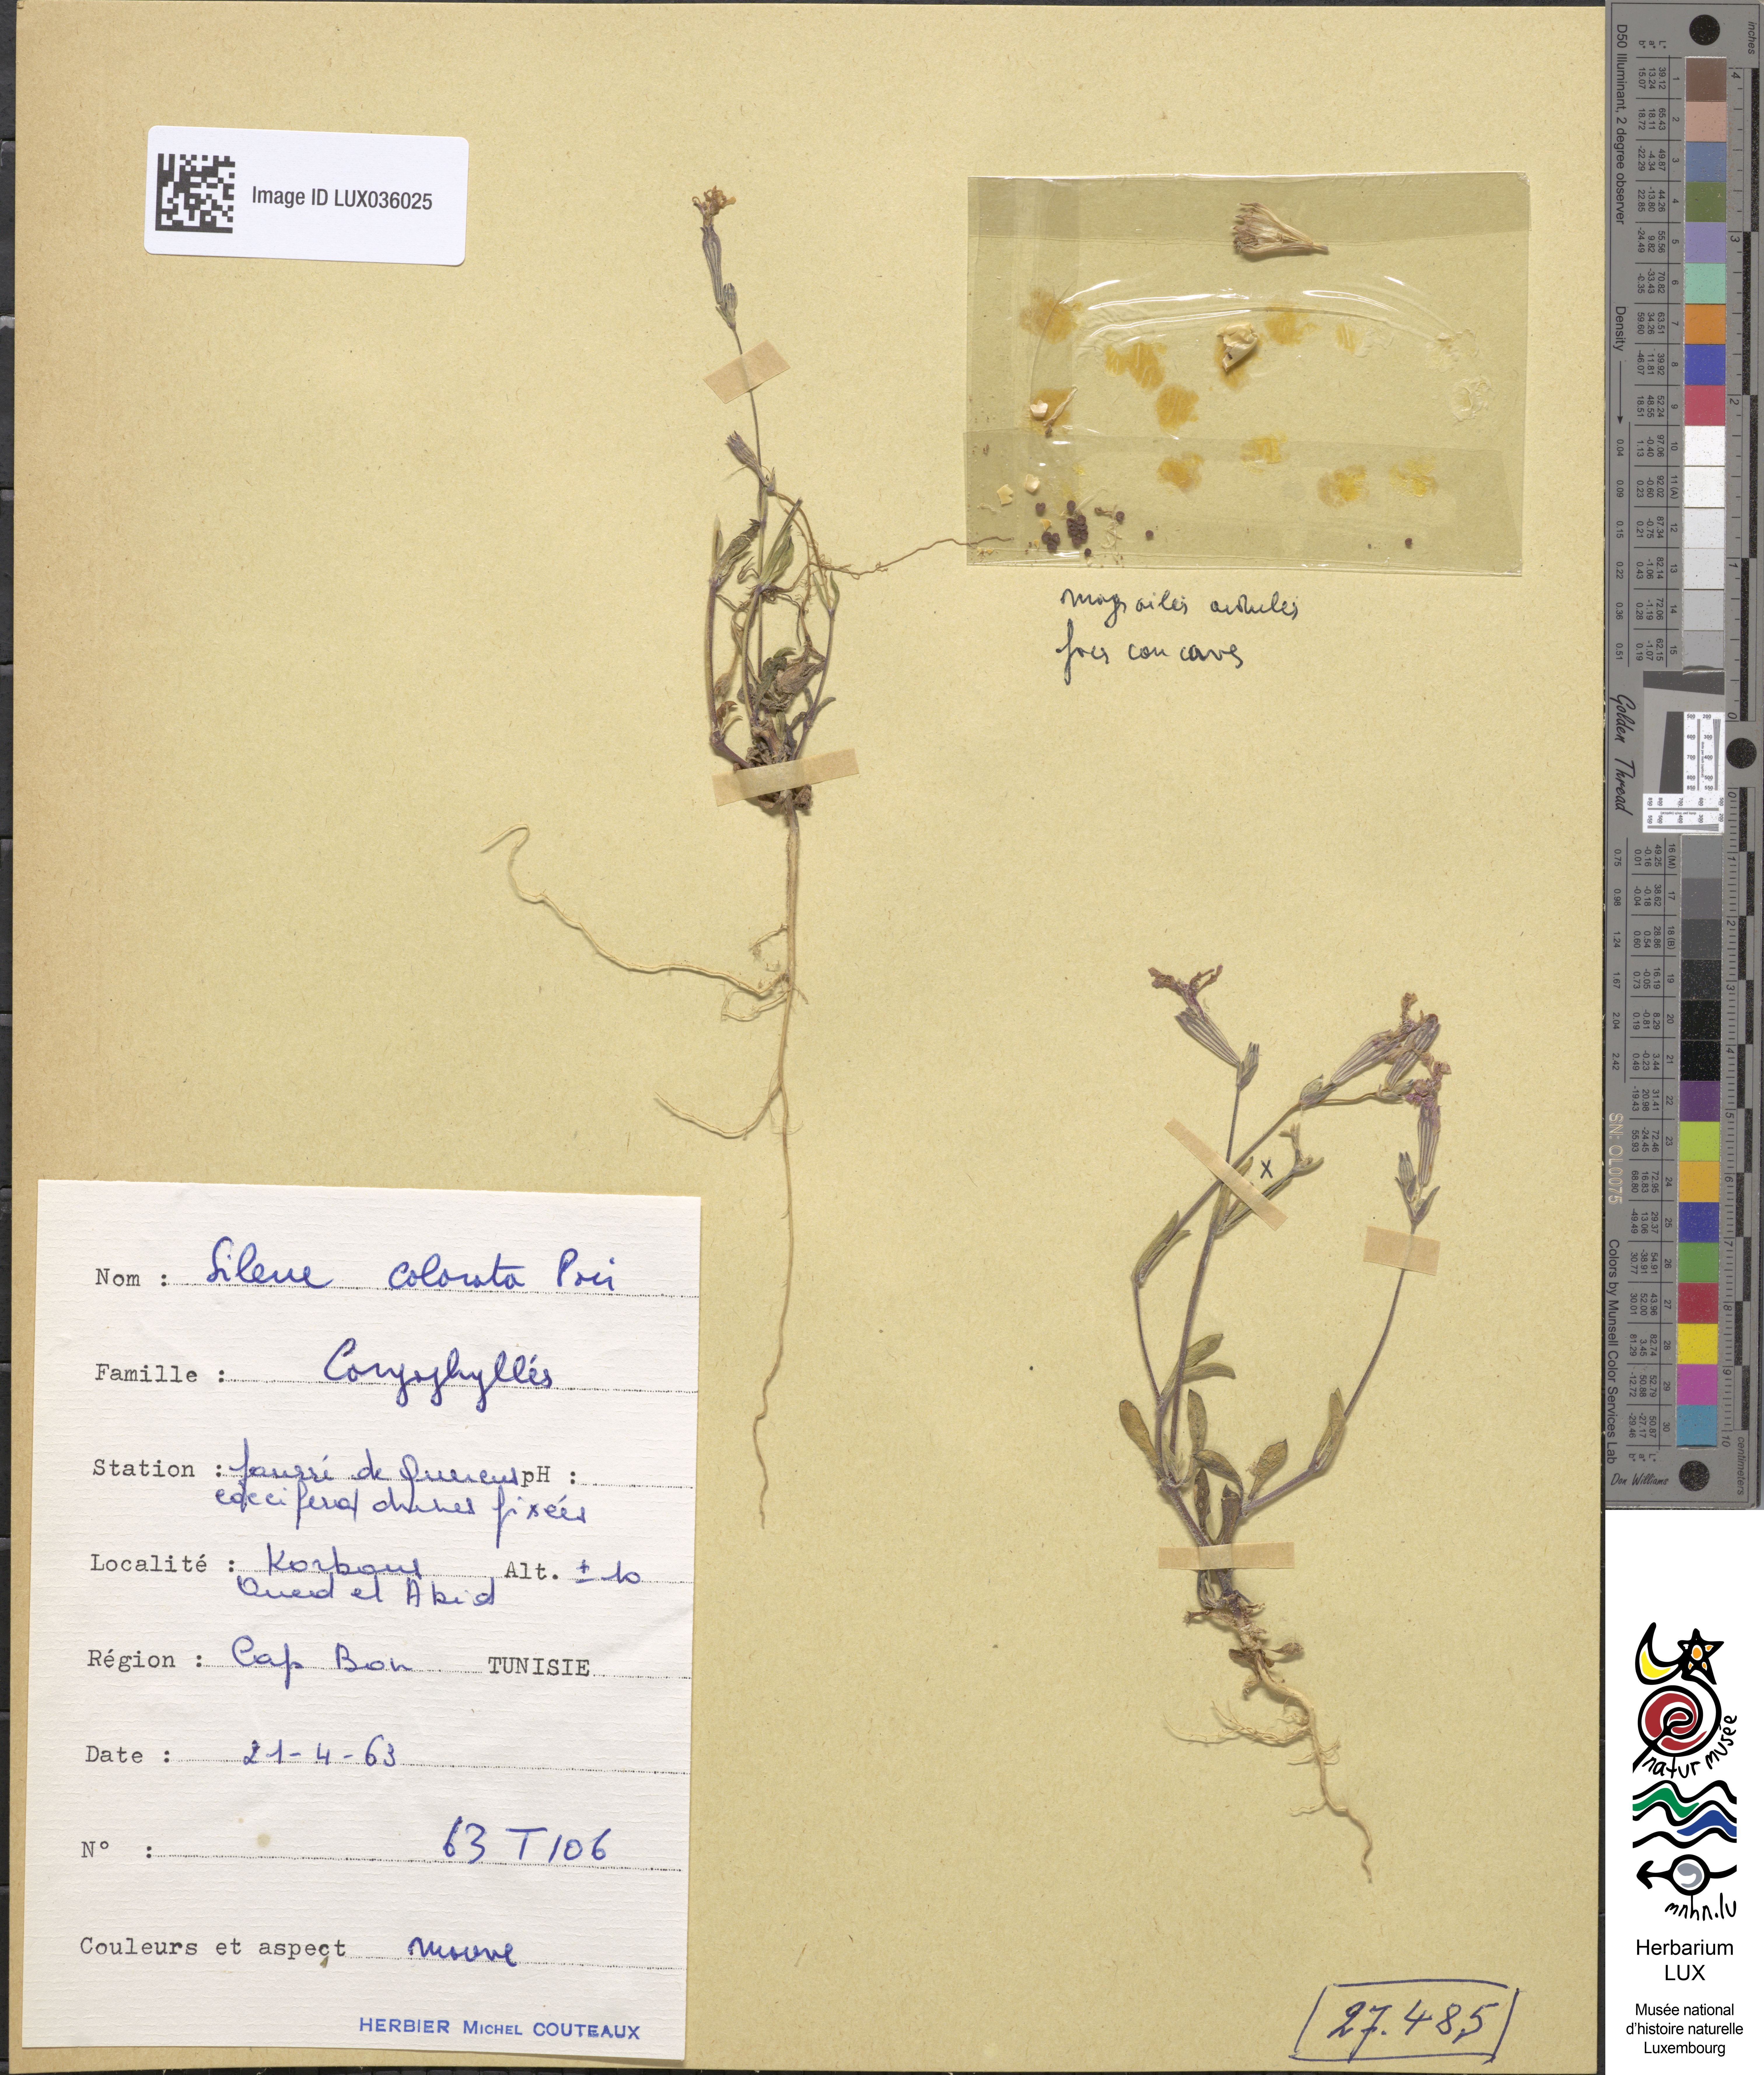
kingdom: Plantae
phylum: Tracheophyta
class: Magnoliopsida
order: Caryophyllales
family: Caryophyllaceae
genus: Eudianthe
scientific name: Eudianthe coeli-rosa
